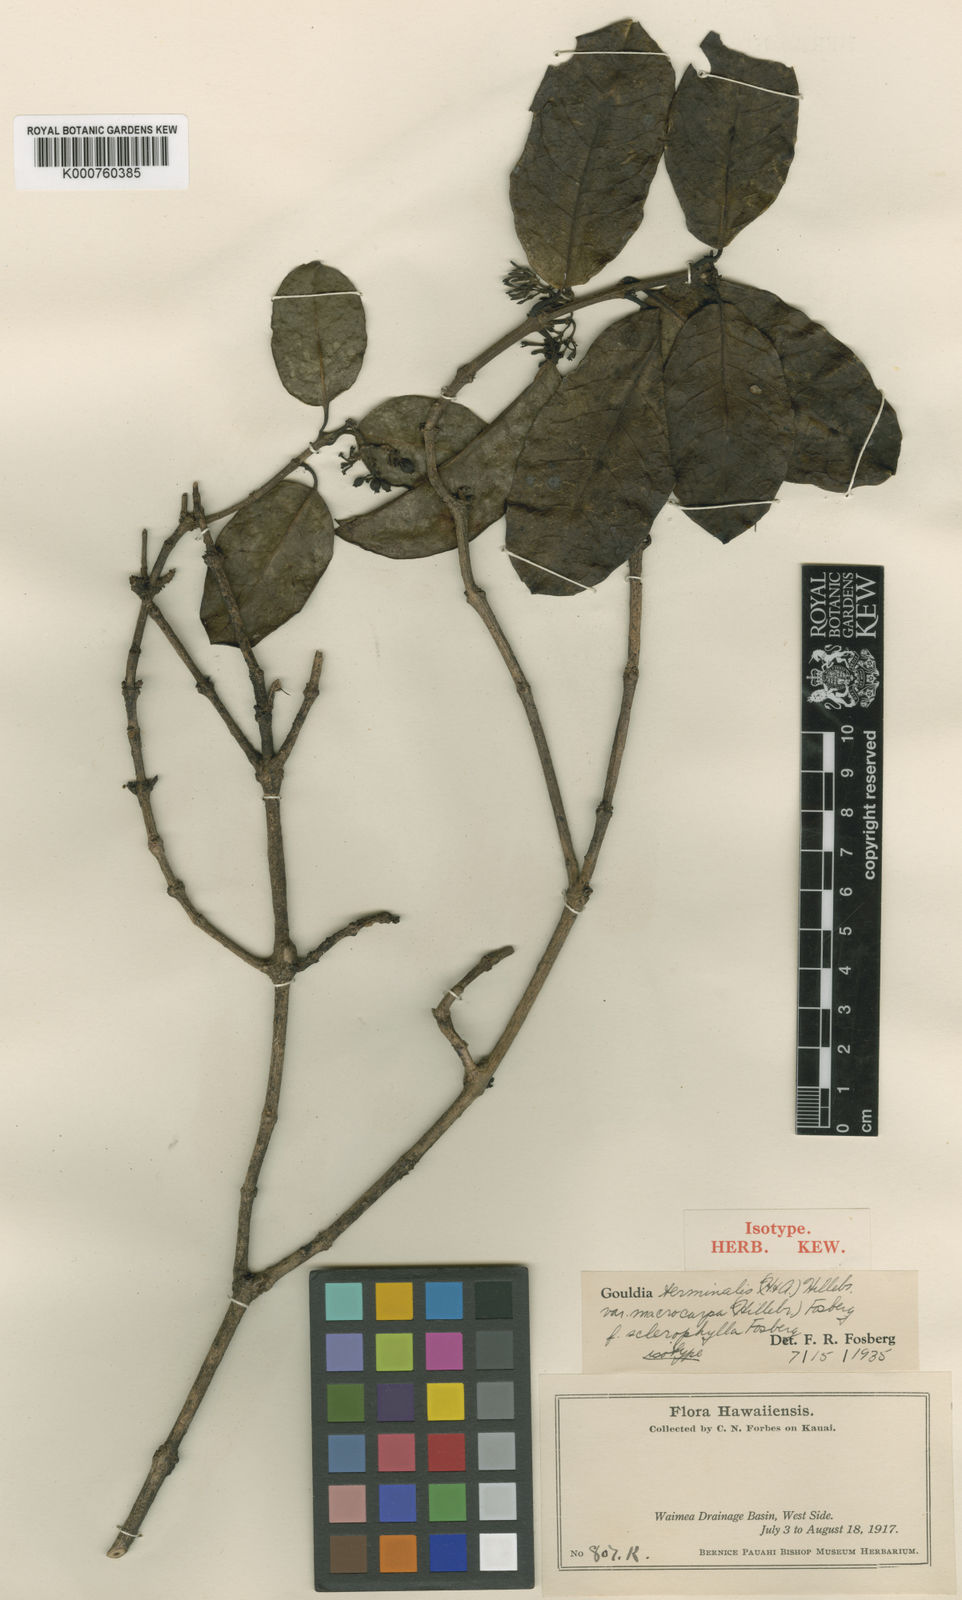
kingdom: Plantae
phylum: Tracheophyta
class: Magnoliopsida
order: Gentianales
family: Rubiaceae
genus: Kadua
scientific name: Kadua affinis
